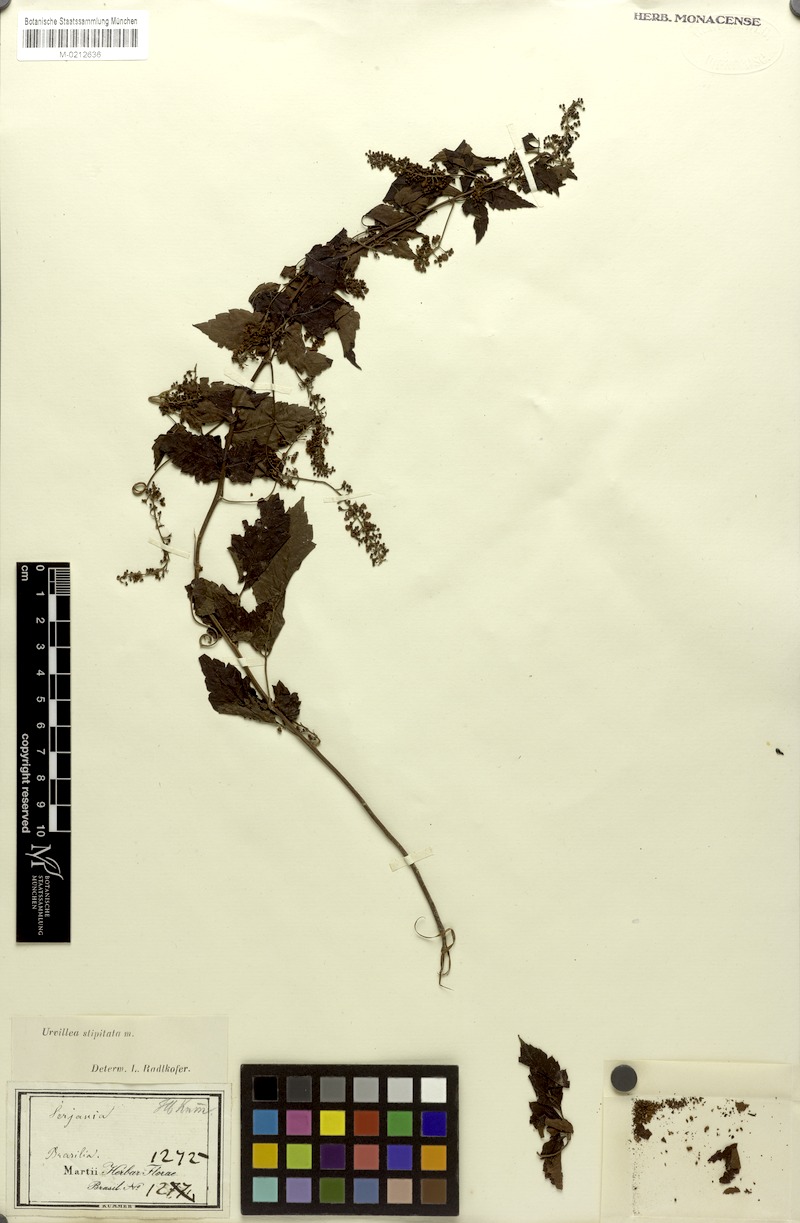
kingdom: Plantae
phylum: Tracheophyta
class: Magnoliopsida
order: Sapindales
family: Sapindaceae
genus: Urvillea
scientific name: Urvillea stipitata
